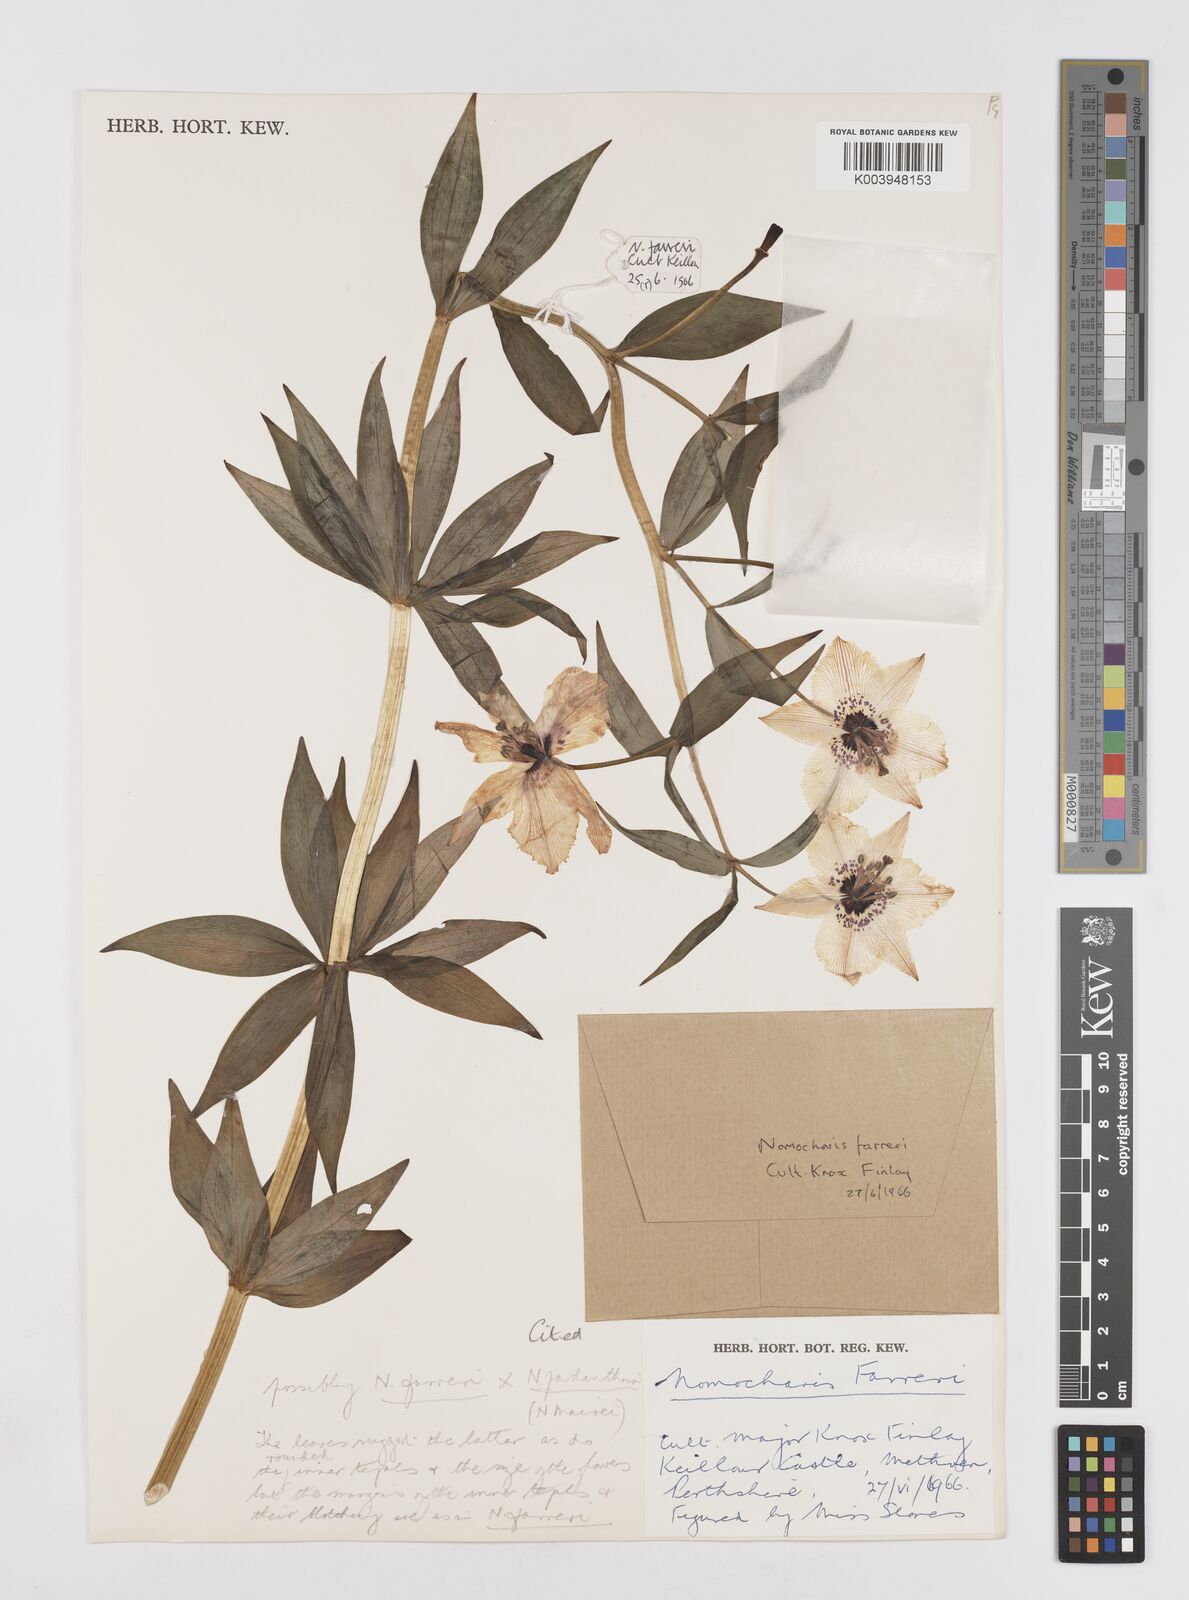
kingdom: Plantae
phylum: Tracheophyta
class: Liliopsida
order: Liliales
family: Liliaceae
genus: Lilium
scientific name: Lilium Nomocharis finlayorum
